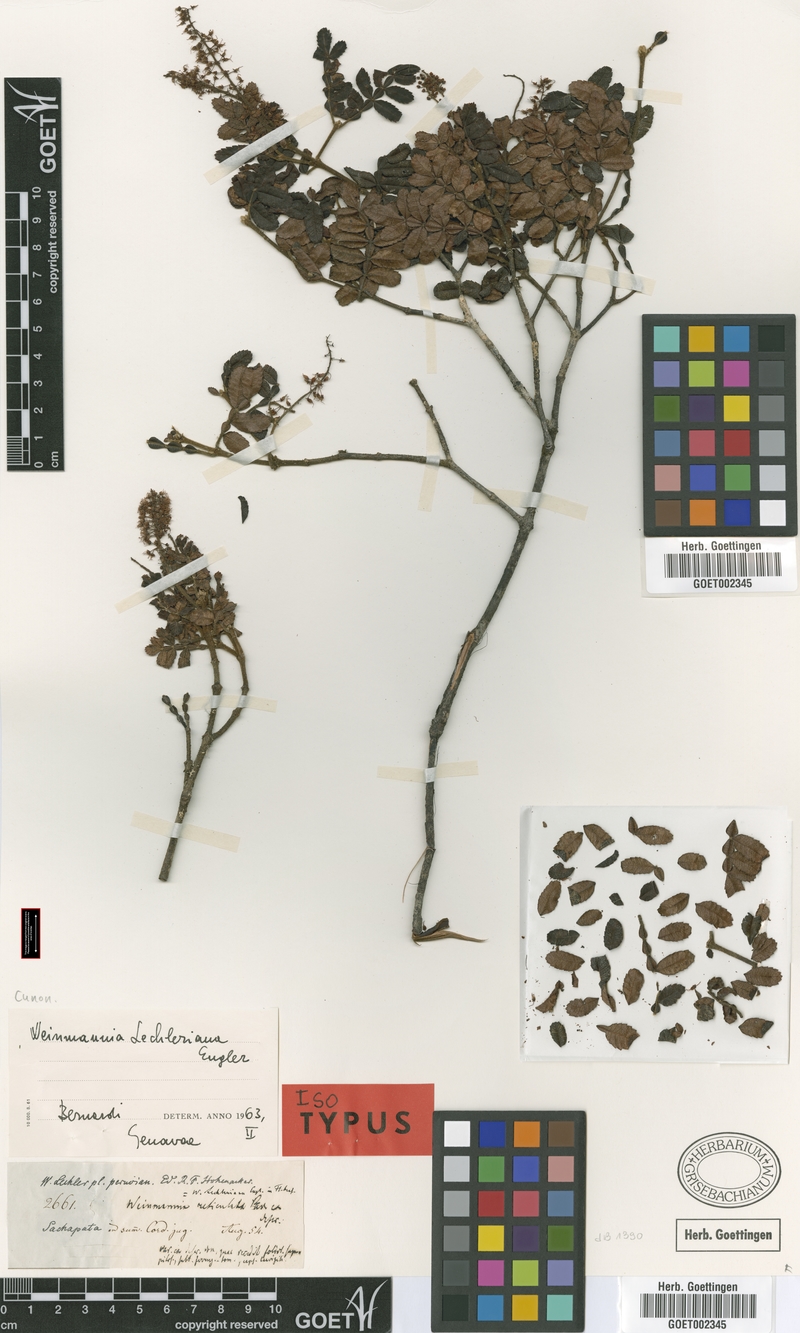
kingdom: Plantae
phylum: Tracheophyta
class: Magnoliopsida
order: Oxalidales
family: Cunoniaceae
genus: Weinmannia
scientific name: Weinmannia lechleriana
